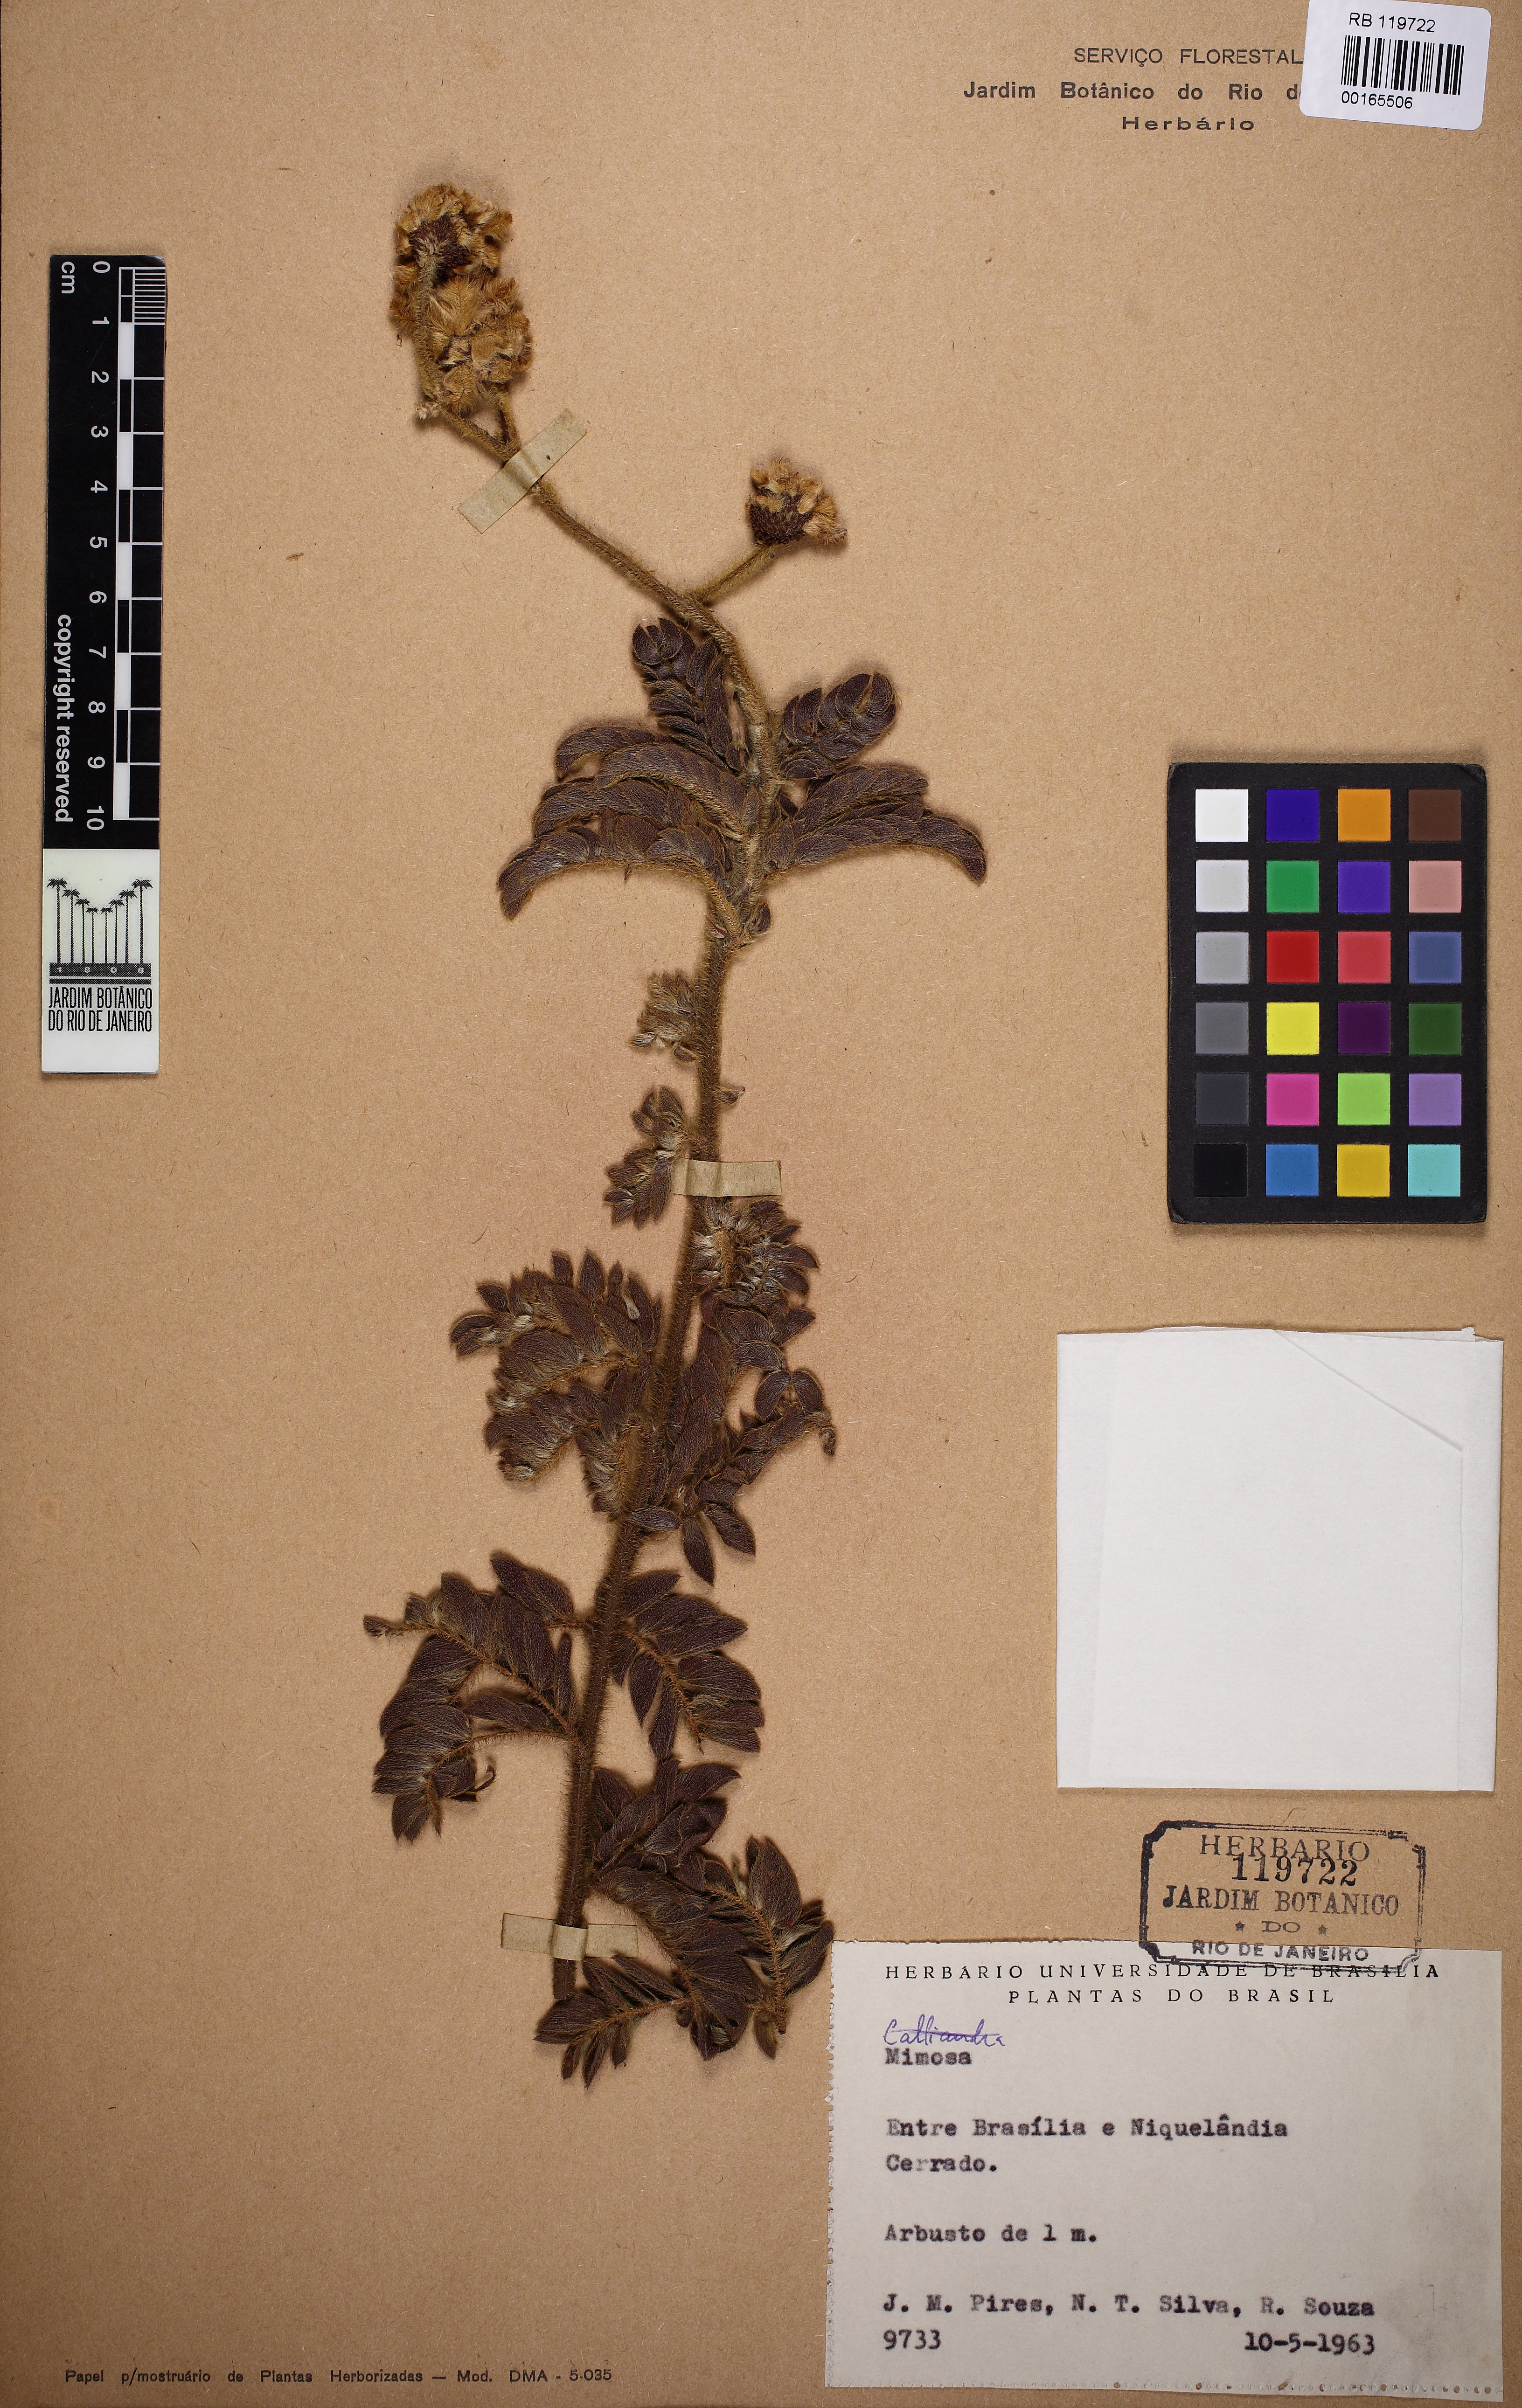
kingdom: Plantae
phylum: Tracheophyta
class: Magnoliopsida
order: Fabales
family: Fabaceae
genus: Mimosa
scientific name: Mimosa radula
